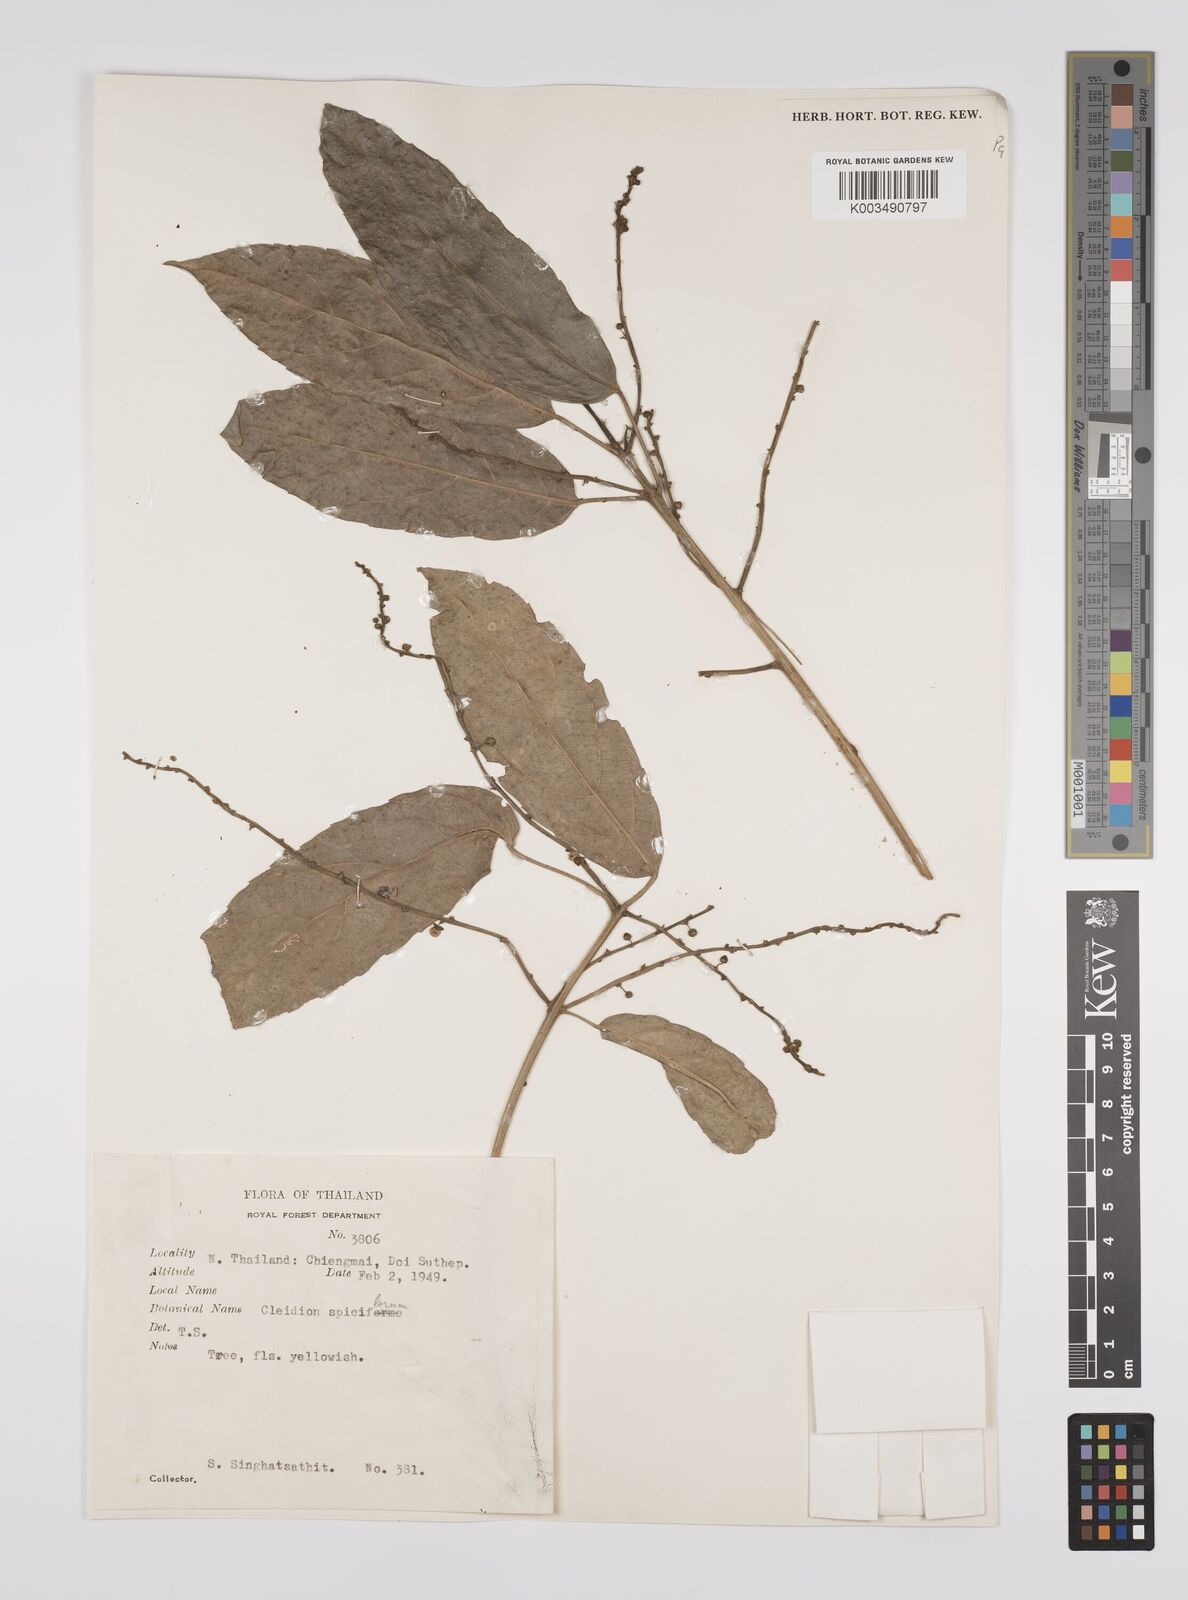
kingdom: Plantae
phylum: Tracheophyta
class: Magnoliopsida
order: Malpighiales
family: Euphorbiaceae
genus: Cleidion
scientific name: Cleidion javanicum
